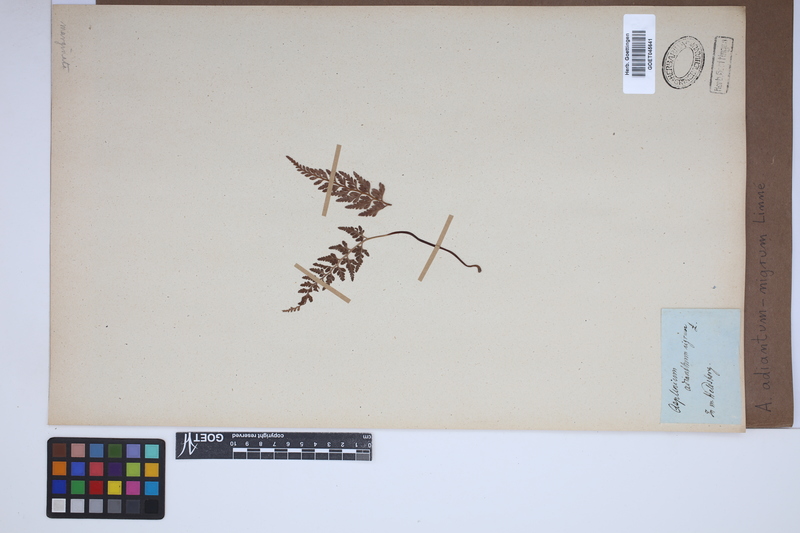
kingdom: Plantae
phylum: Tracheophyta
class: Polypodiopsida
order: Polypodiales
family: Aspleniaceae
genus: Asplenium
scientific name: Asplenium adiantum-nigrum
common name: Black spleenwort
